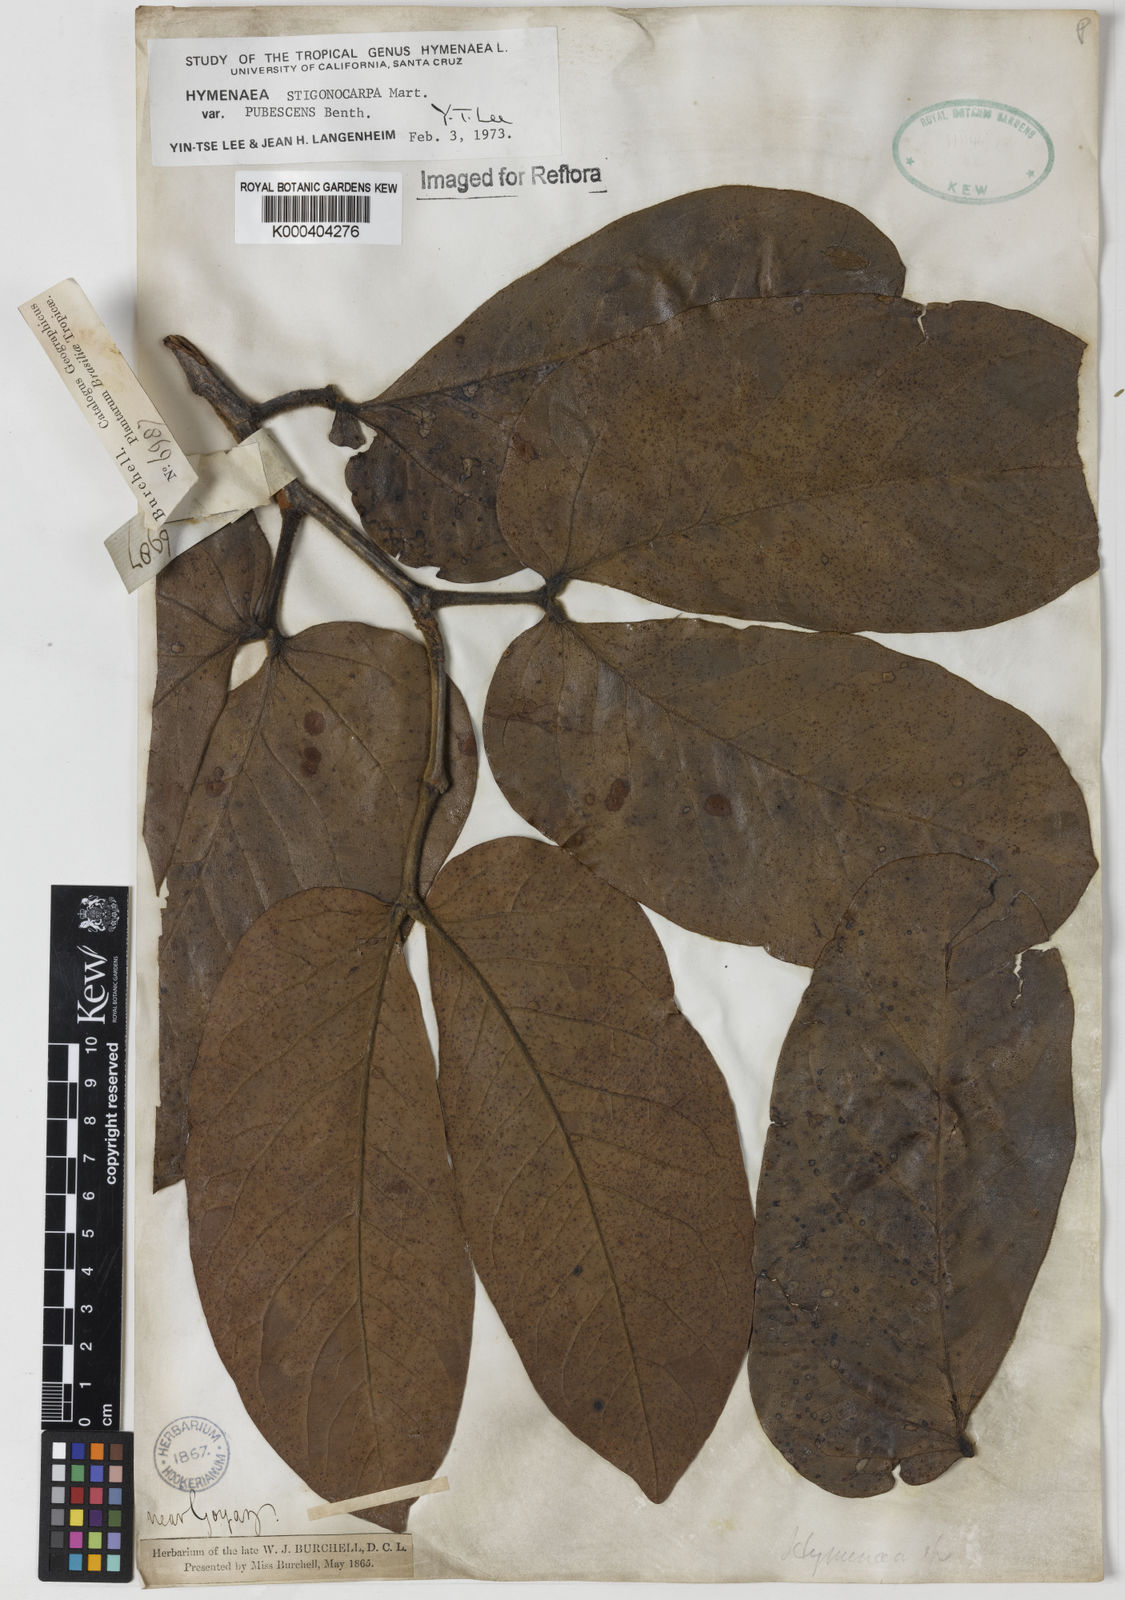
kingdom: Plantae
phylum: Tracheophyta
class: Magnoliopsida
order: Fabales
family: Fabaceae
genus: Hymenaea
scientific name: Hymenaea stigonocarpa
